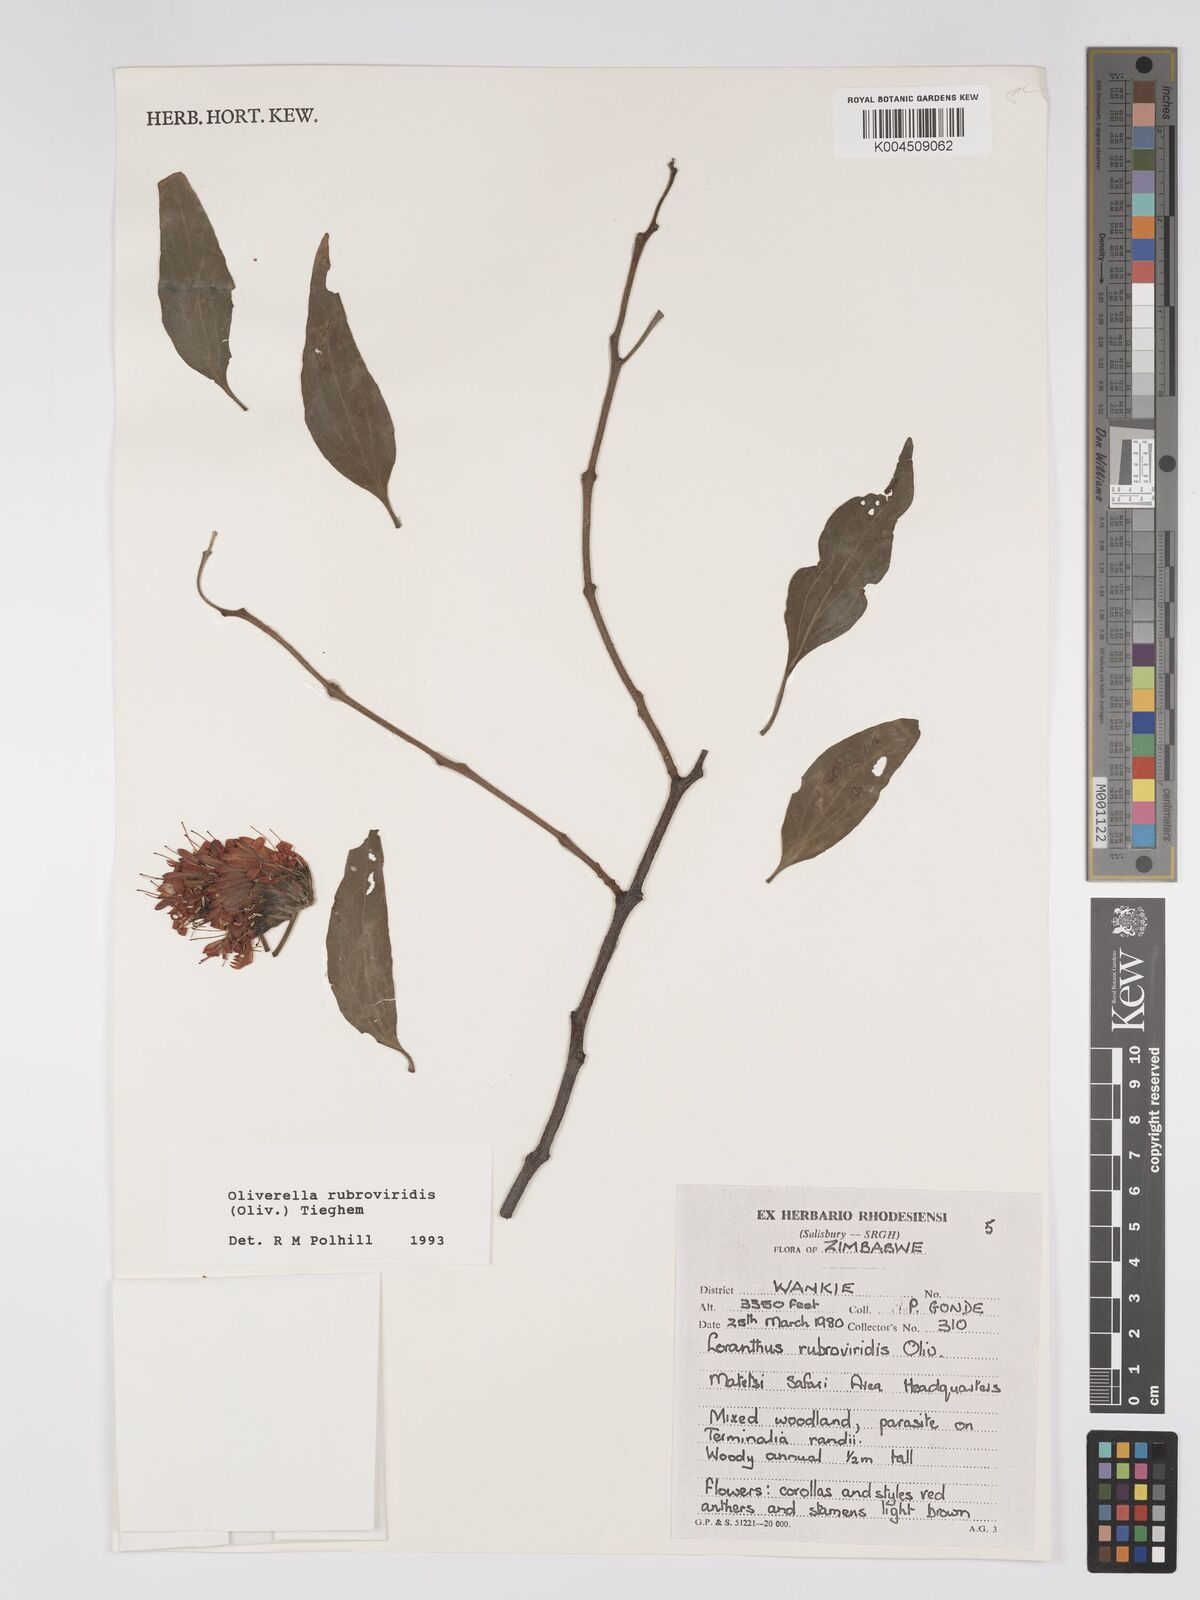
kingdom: Plantae
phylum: Tracheophyta
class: Magnoliopsida
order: Santalales
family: Loranthaceae
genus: Oliverella
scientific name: Oliverella rubroviridis
